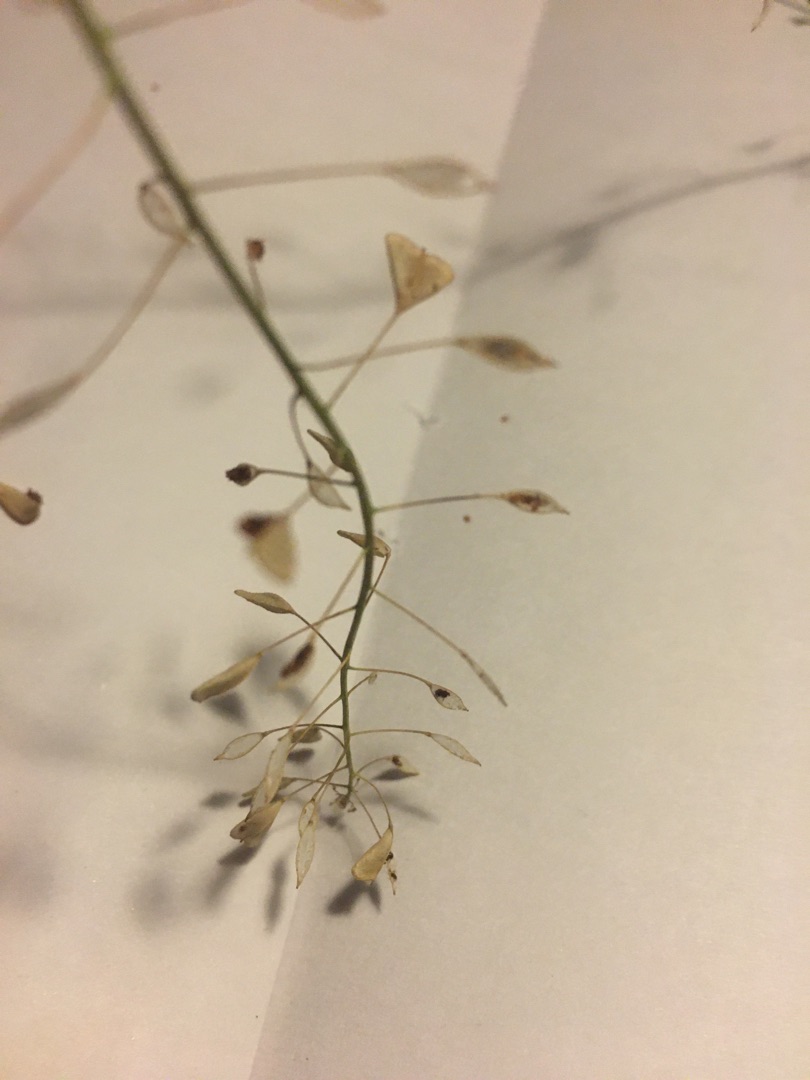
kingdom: Plantae
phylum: Tracheophyta
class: Magnoliopsida
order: Brassicales
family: Brassicaceae
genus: Capsella
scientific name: Capsella bursa-pastoris
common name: Hyrdetaske
